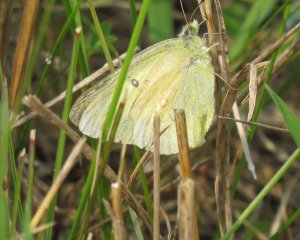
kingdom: Animalia
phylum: Arthropoda
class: Insecta
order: Lepidoptera
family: Pieridae
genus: Colias
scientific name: Colias philodice
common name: Clouded Sulphur
